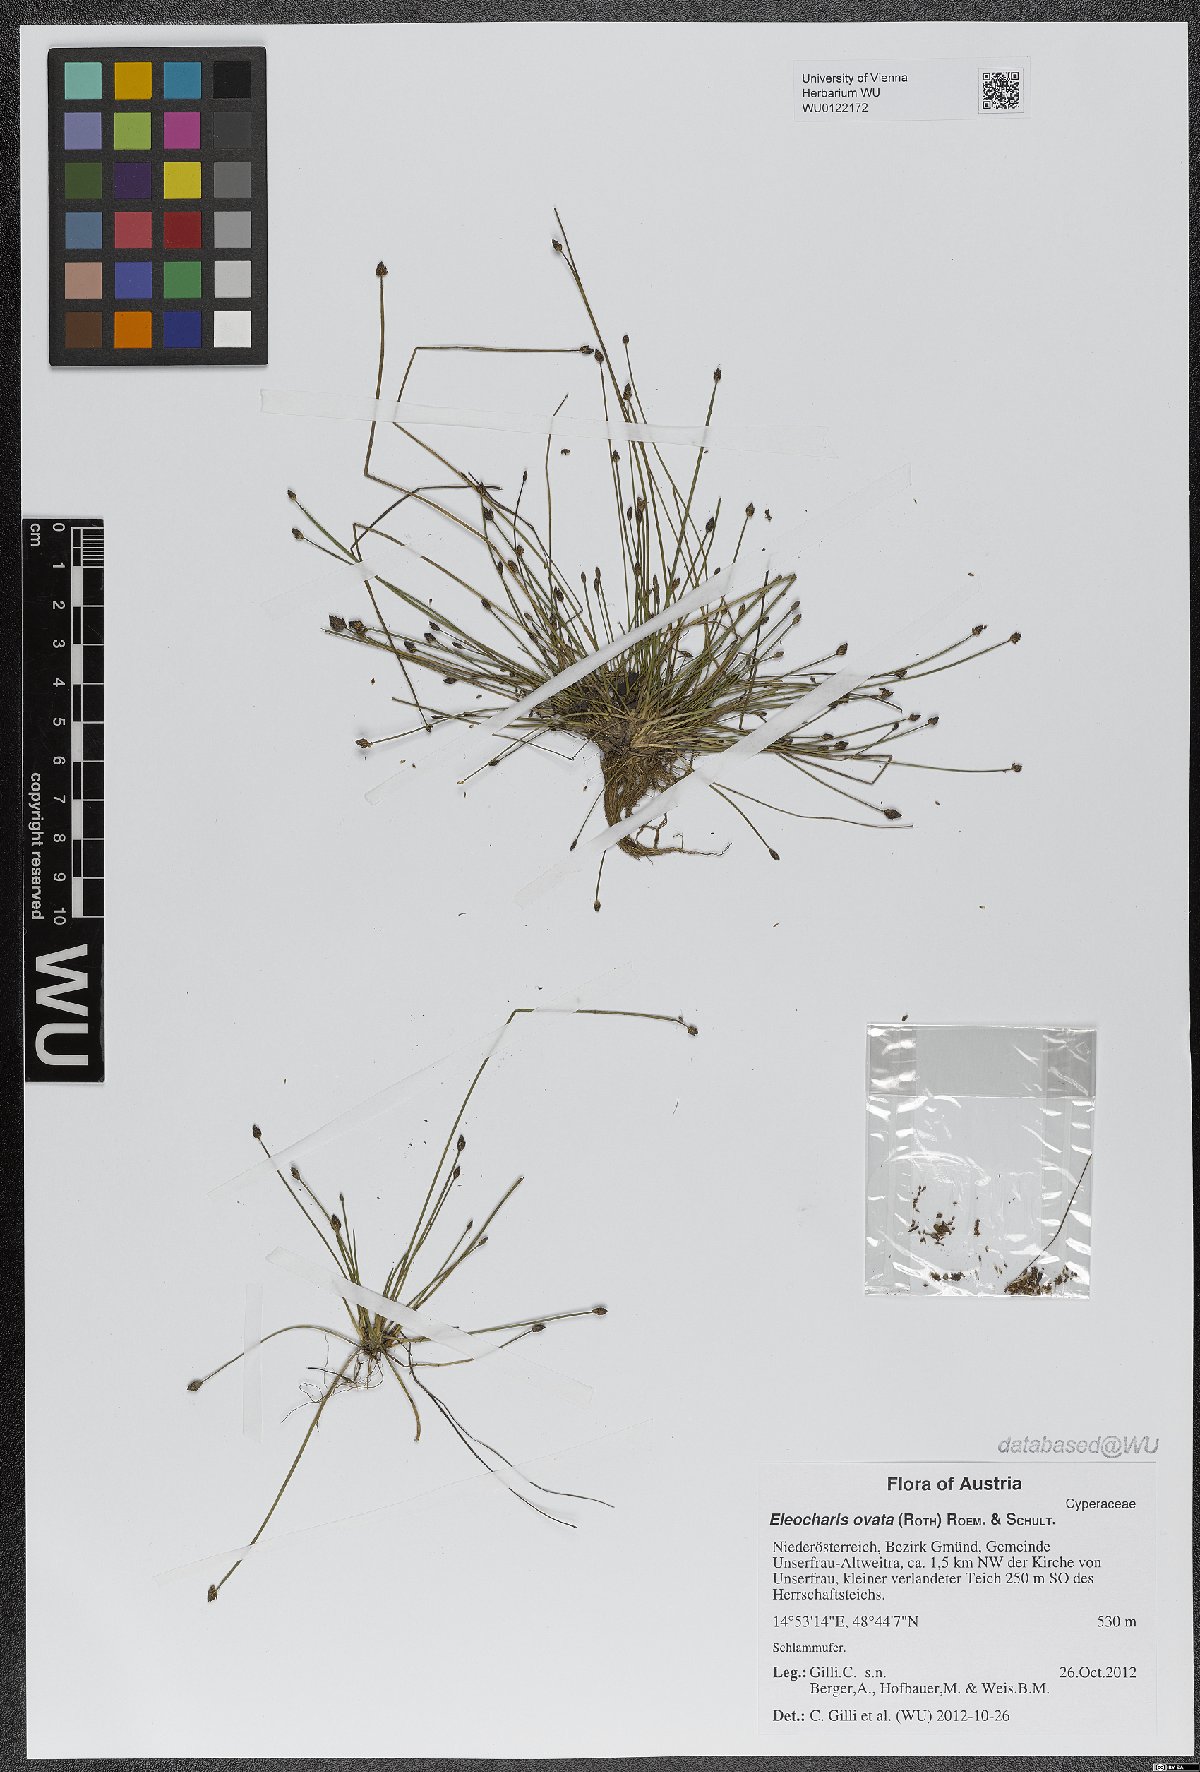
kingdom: Plantae
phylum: Tracheophyta
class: Liliopsida
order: Poales
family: Cyperaceae
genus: Eleocharis
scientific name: Eleocharis ovata
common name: Oval spike-rush
